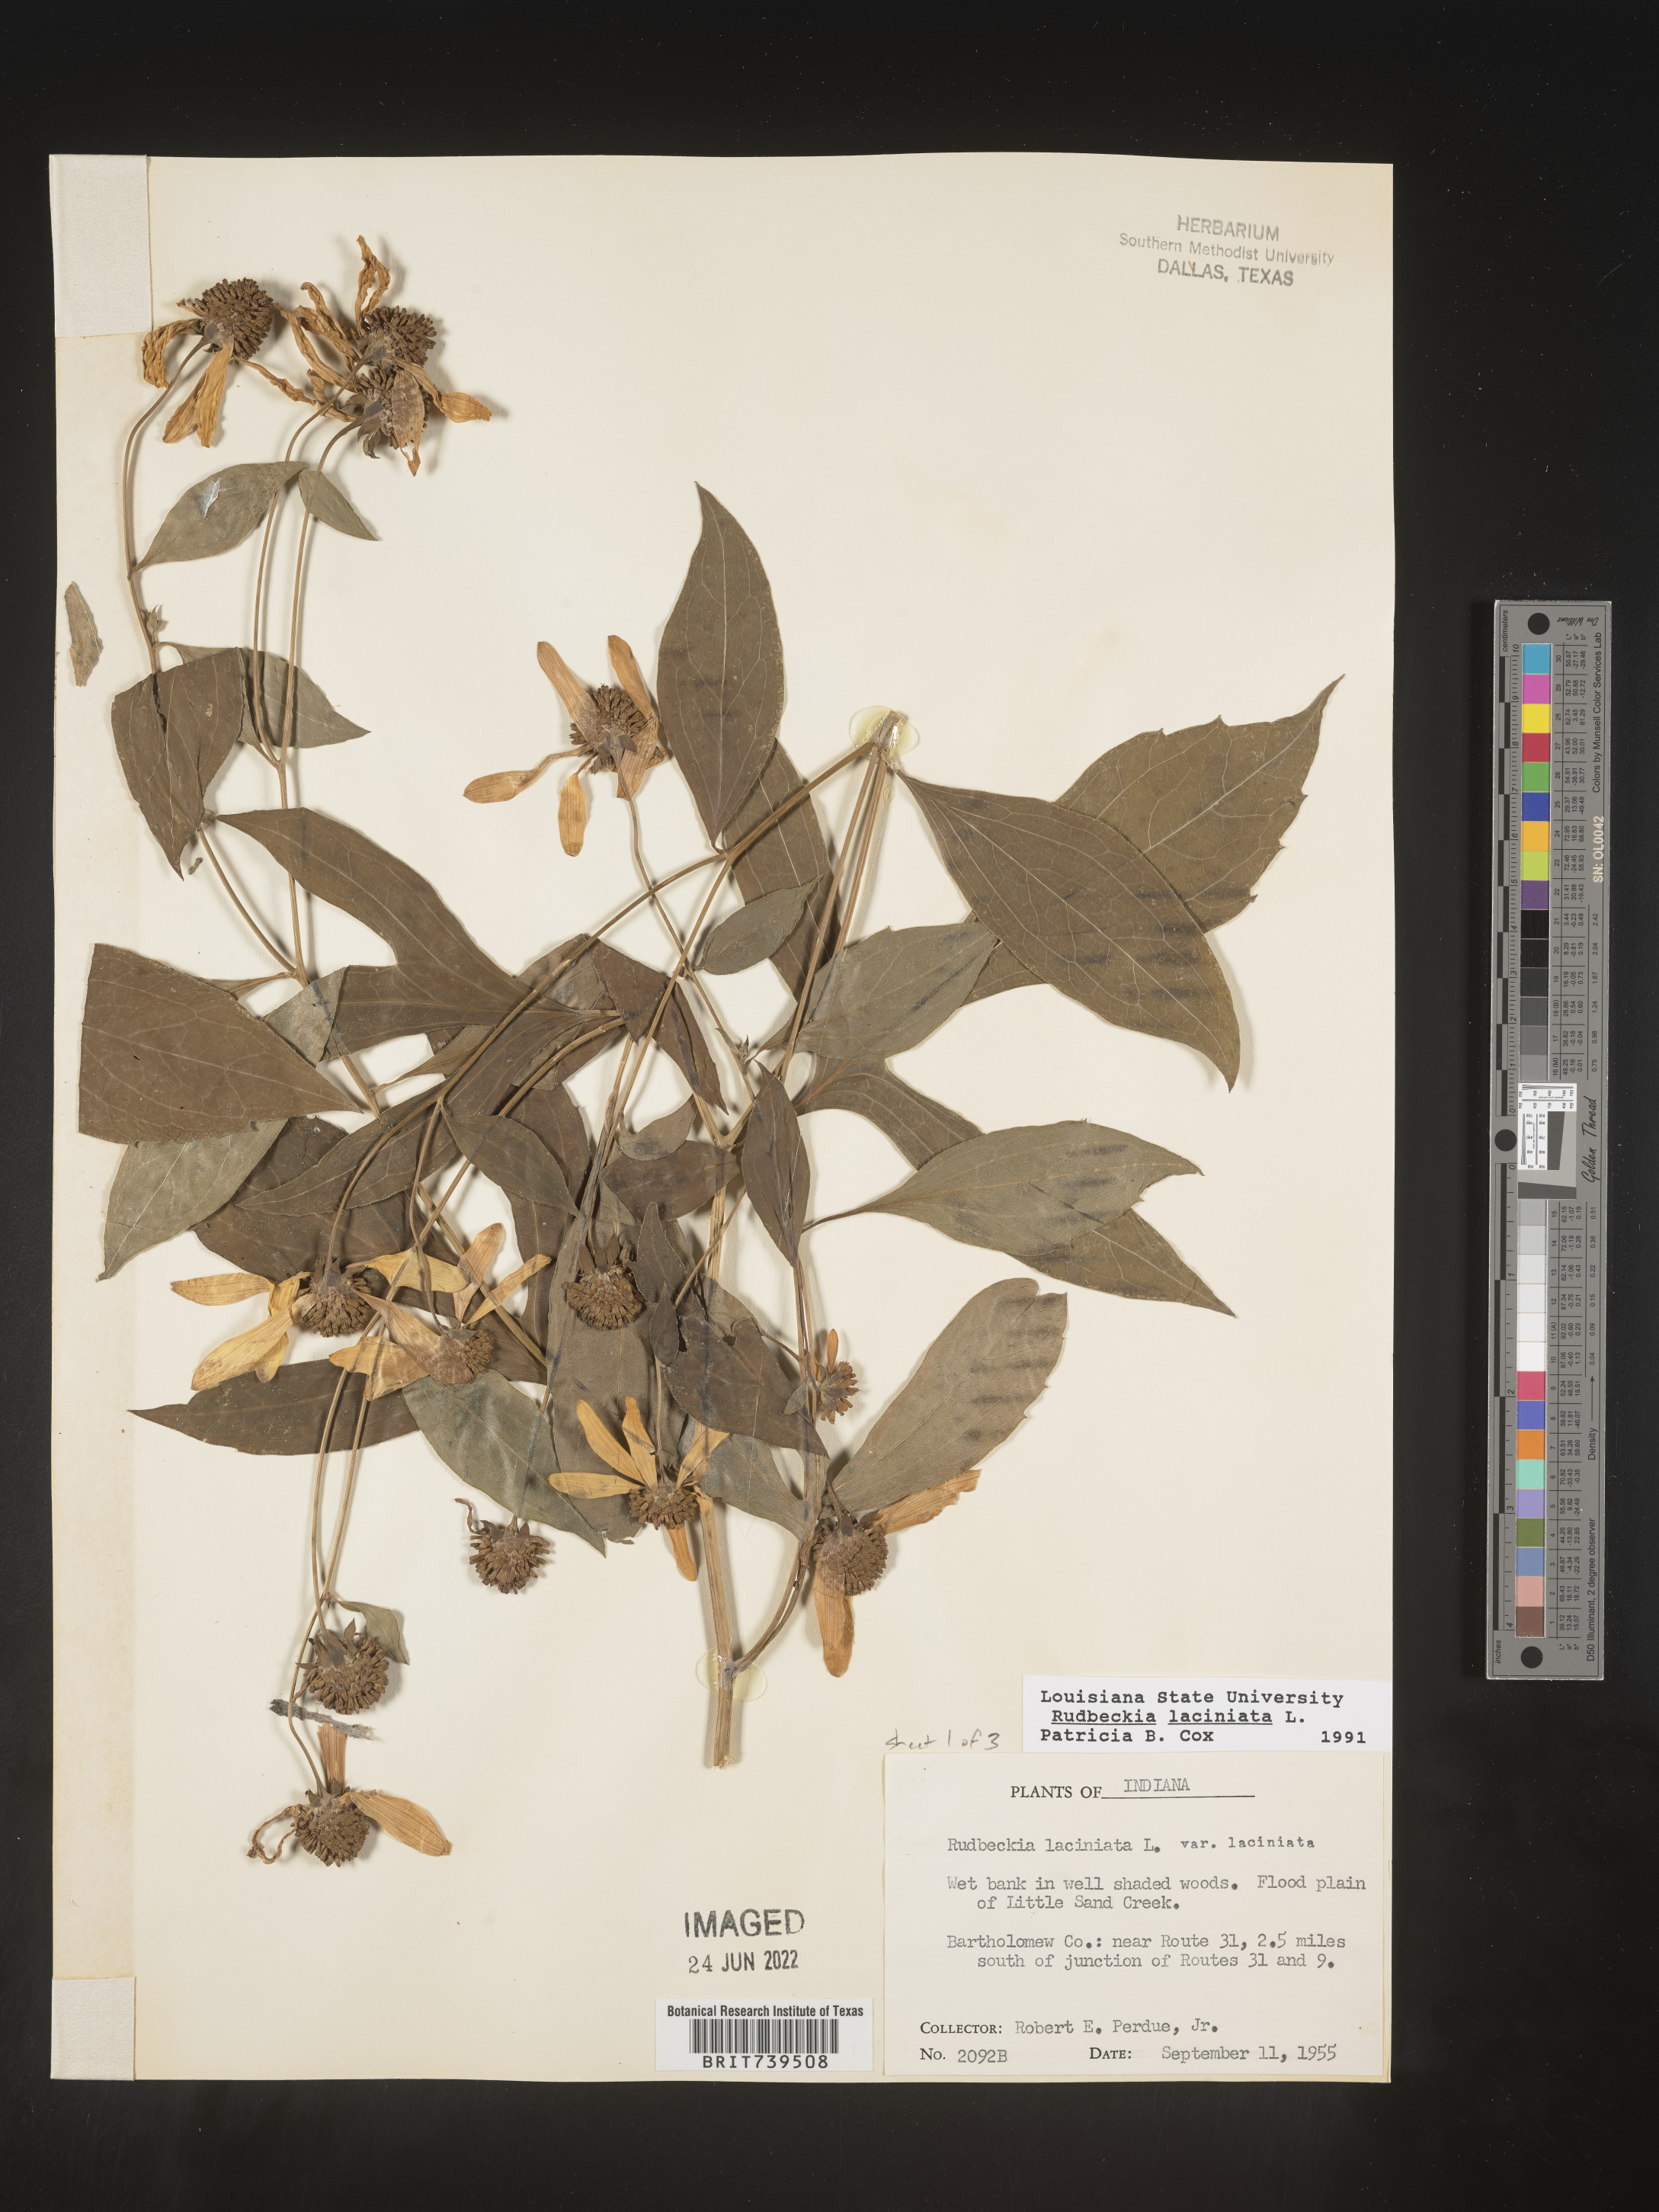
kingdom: Plantae
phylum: Tracheophyta
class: Magnoliopsida
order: Asterales
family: Asteraceae
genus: Rudbeckia
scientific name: Rudbeckia laciniata
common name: Coneflower
